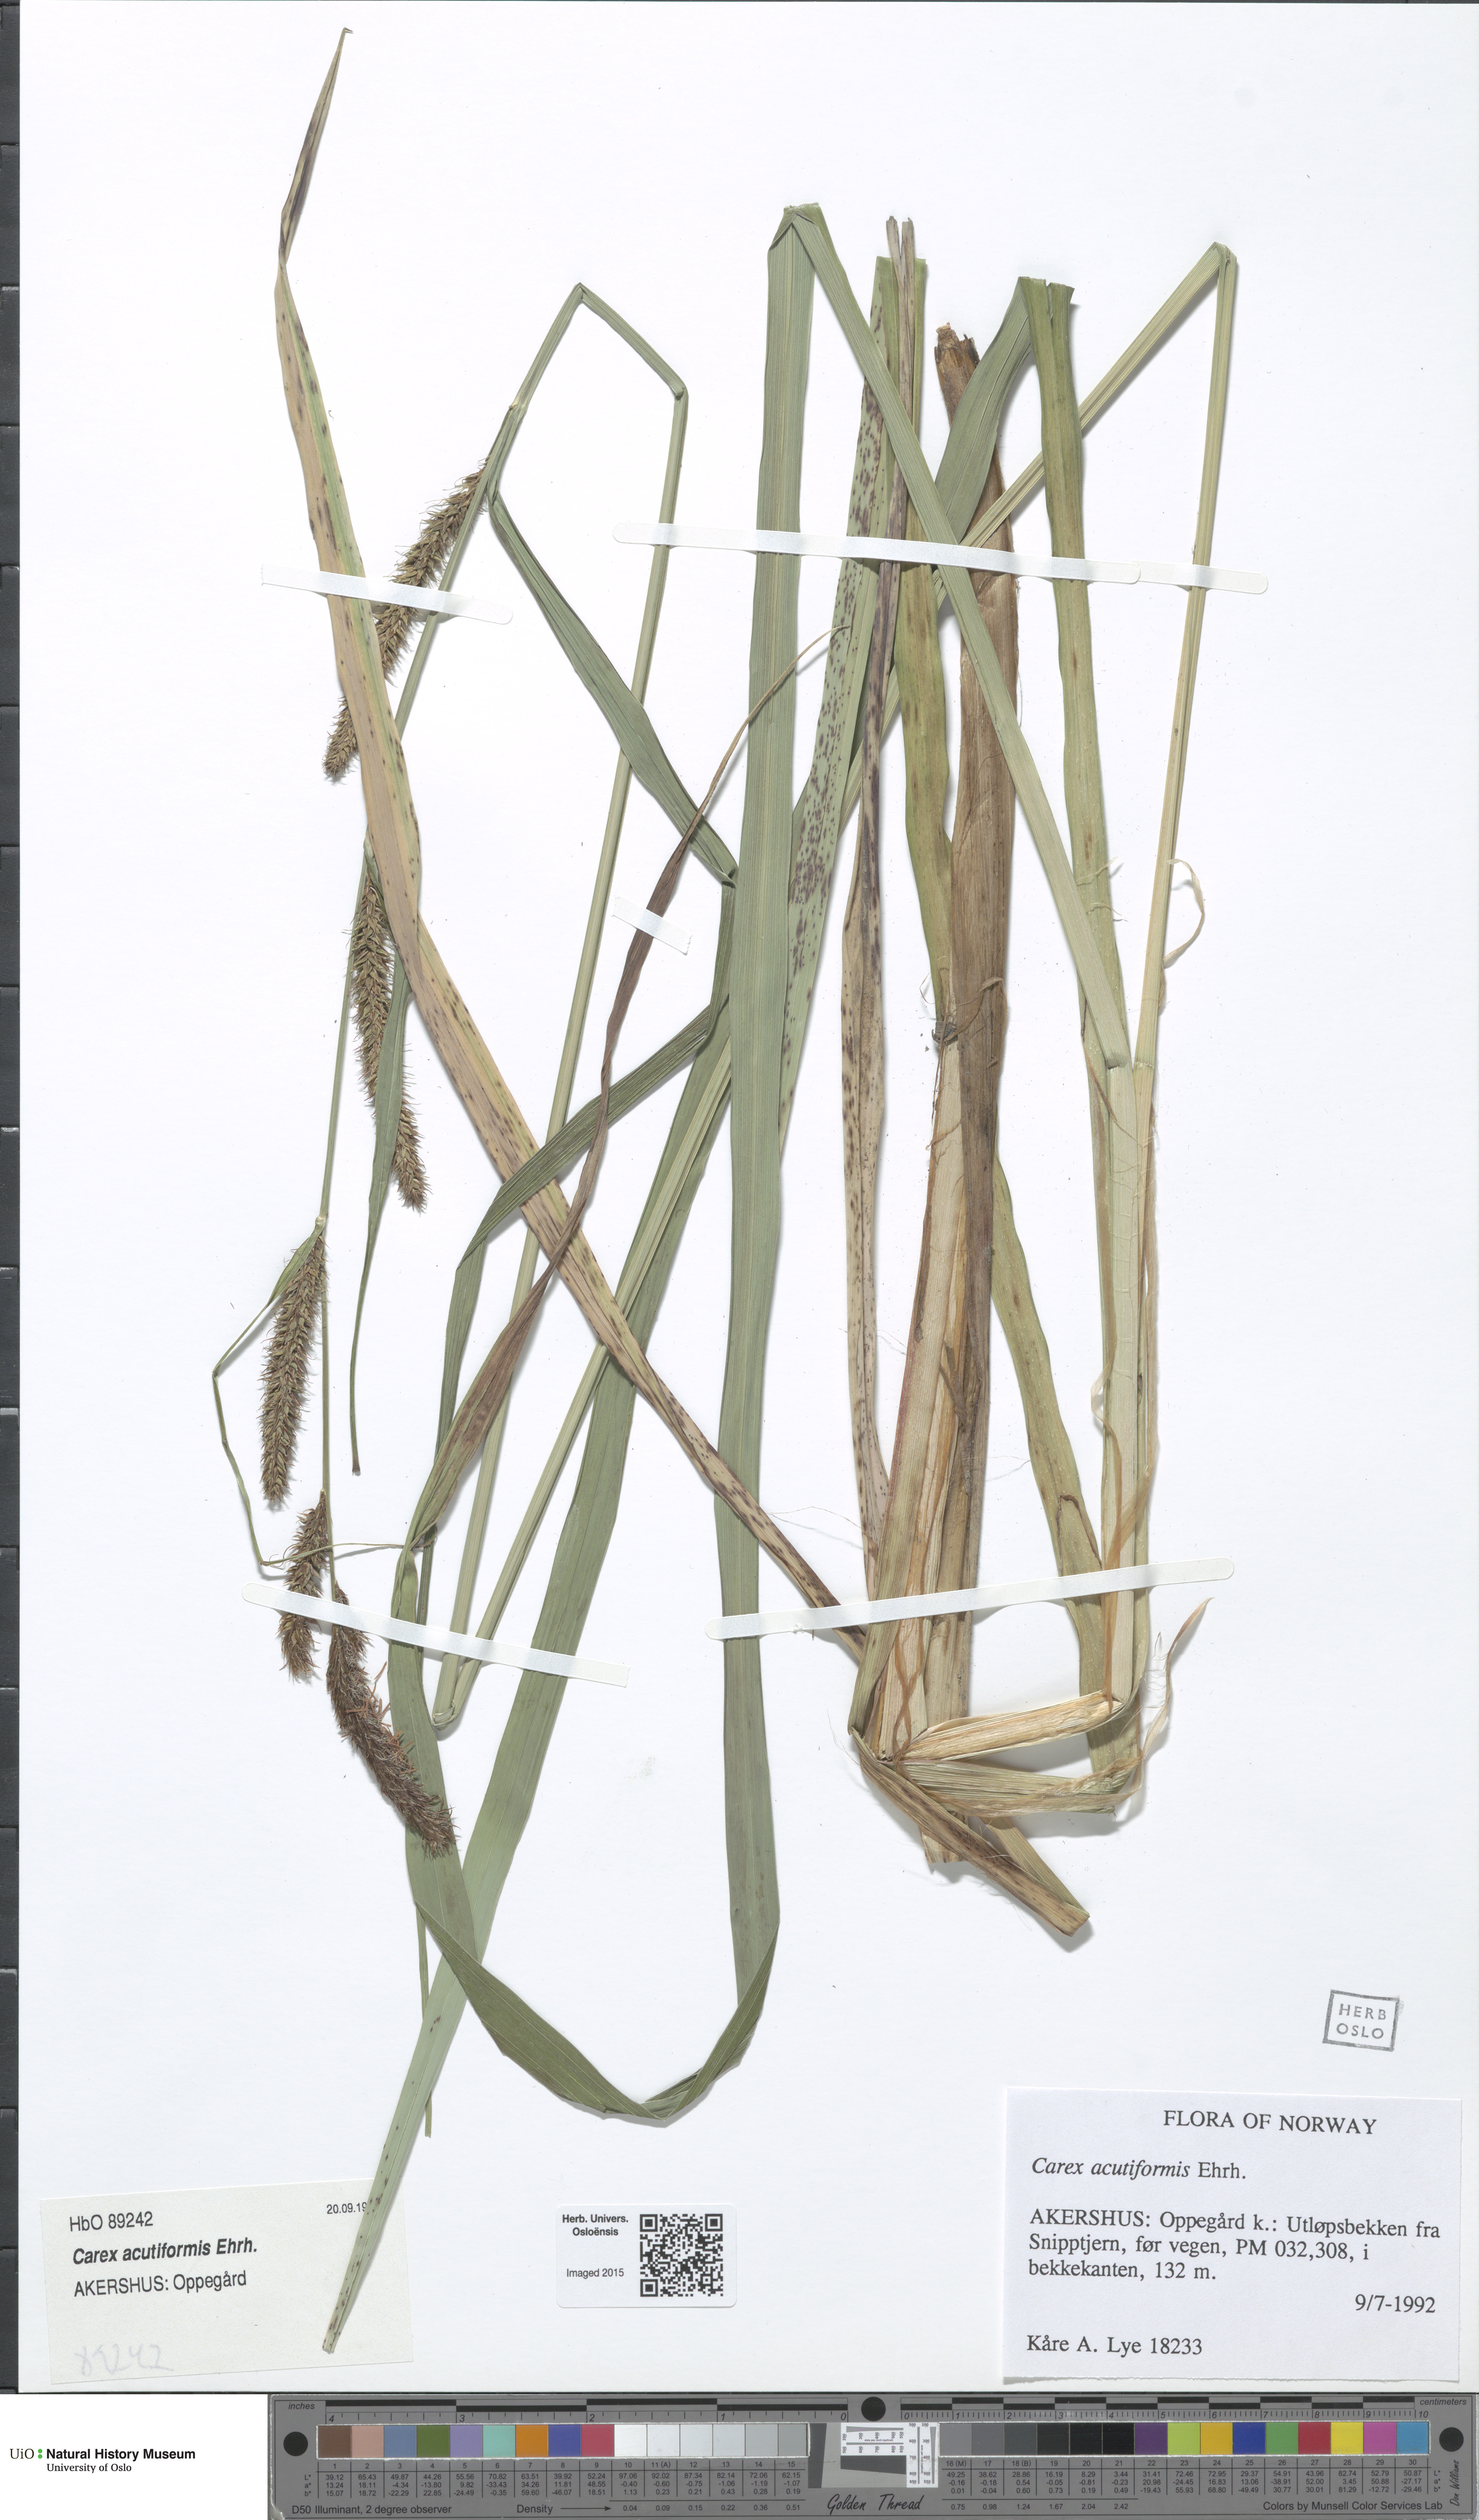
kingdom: Plantae
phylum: Tracheophyta
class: Liliopsida
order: Poales
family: Cyperaceae
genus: Carex
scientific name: Carex acutiformis
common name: Lesser pond-sedge
